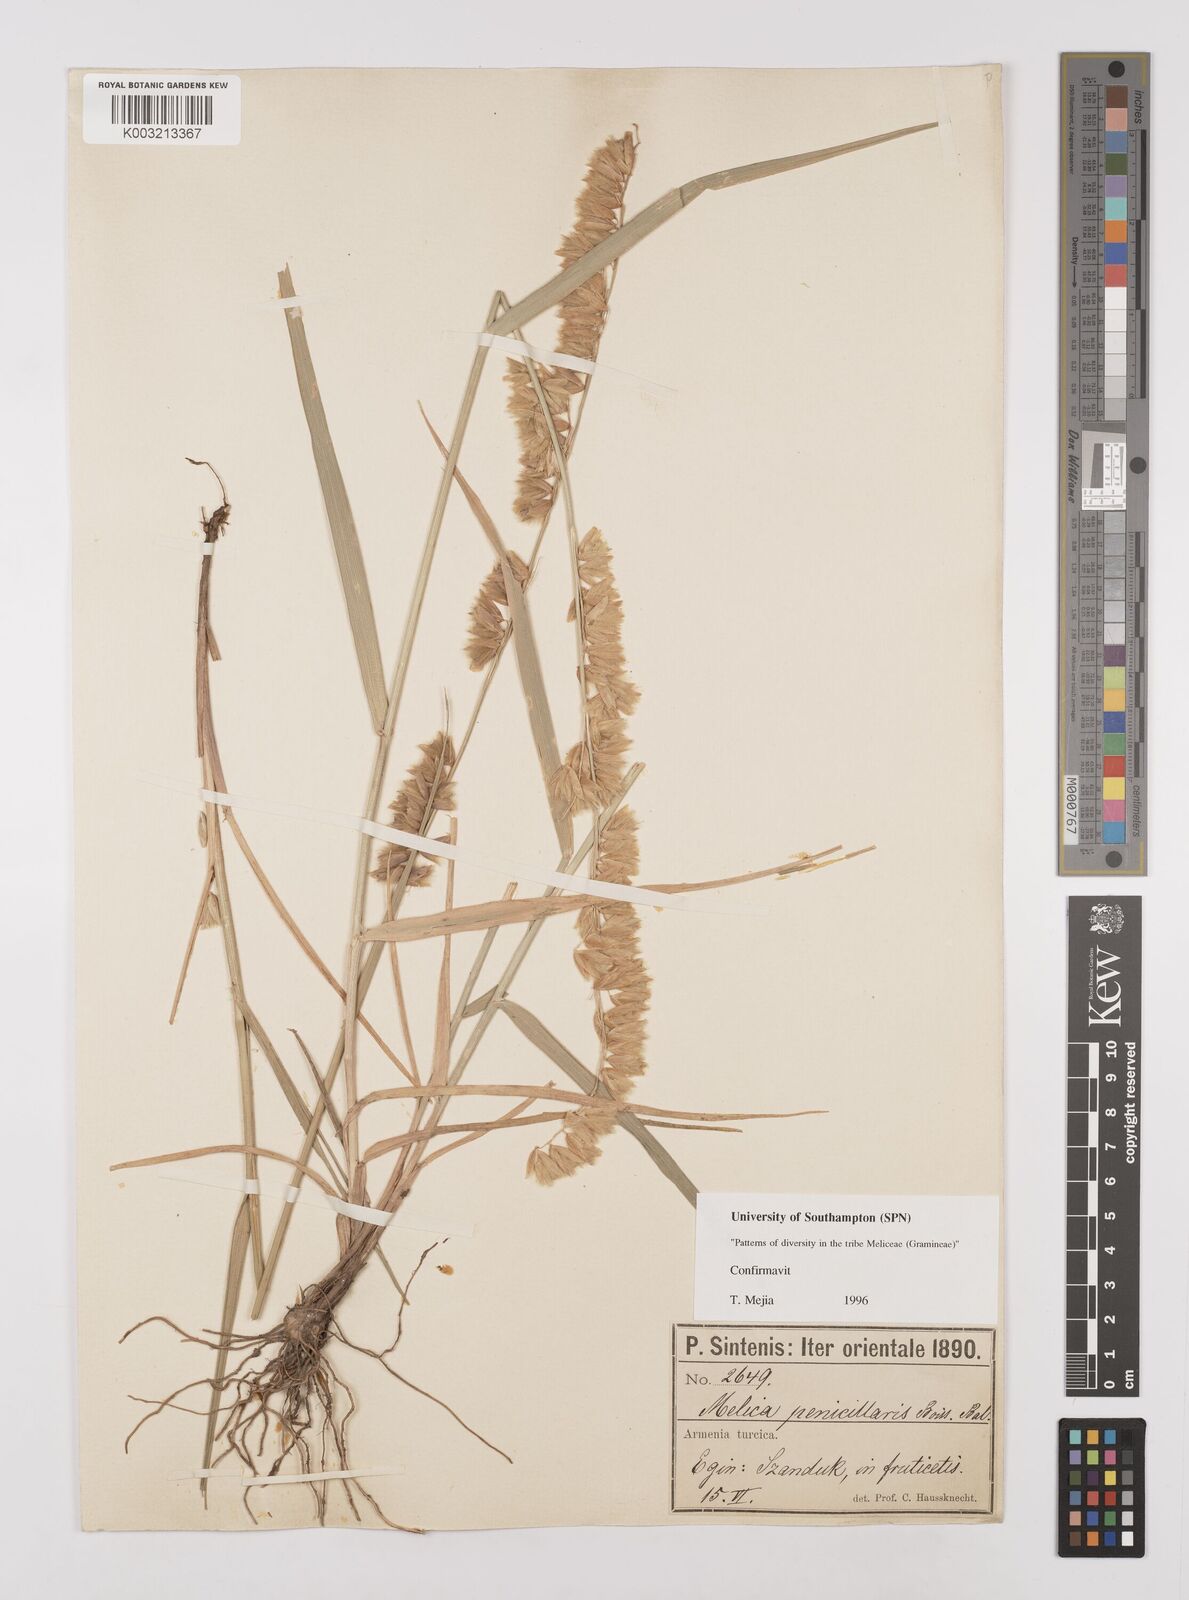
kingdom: Plantae
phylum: Tracheophyta
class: Liliopsida
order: Poales
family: Poaceae
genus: Melica
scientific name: Melica penicillaris
